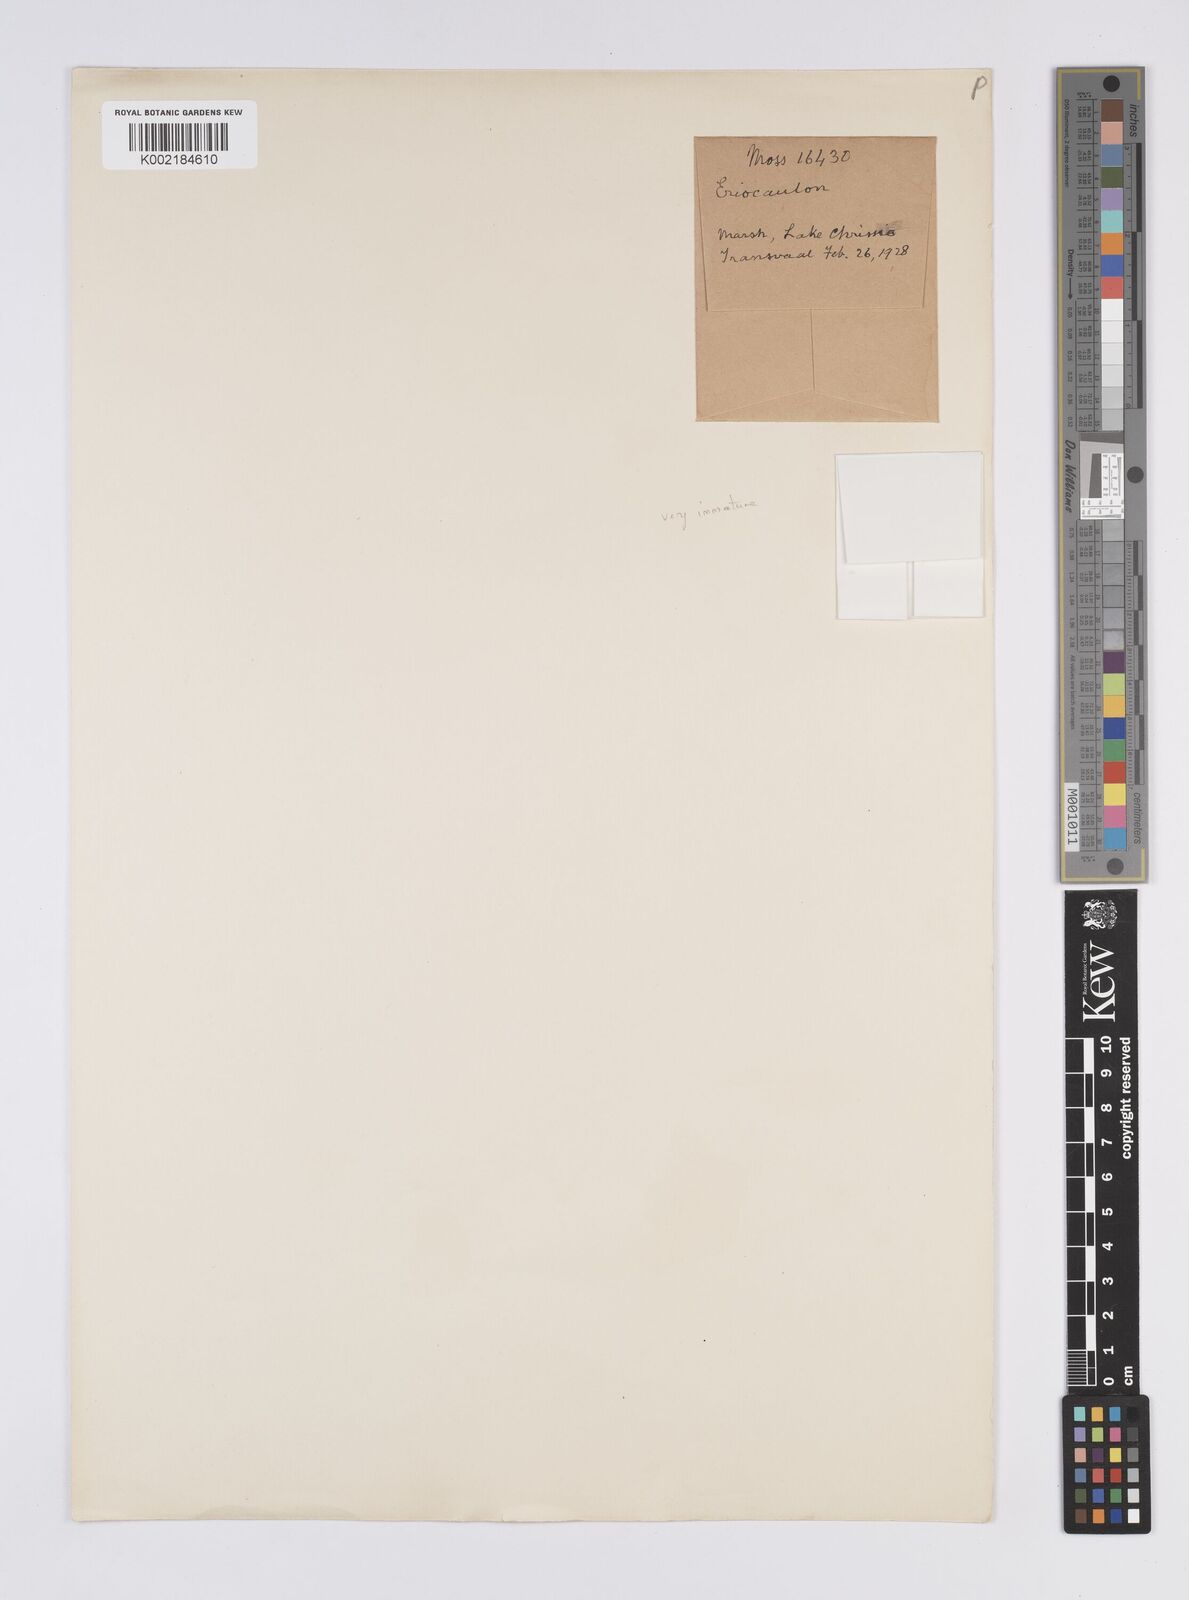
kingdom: Plantae
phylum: Tracheophyta
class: Liliopsida
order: Poales
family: Eriocaulaceae
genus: Eriocaulon
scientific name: Eriocaulon
